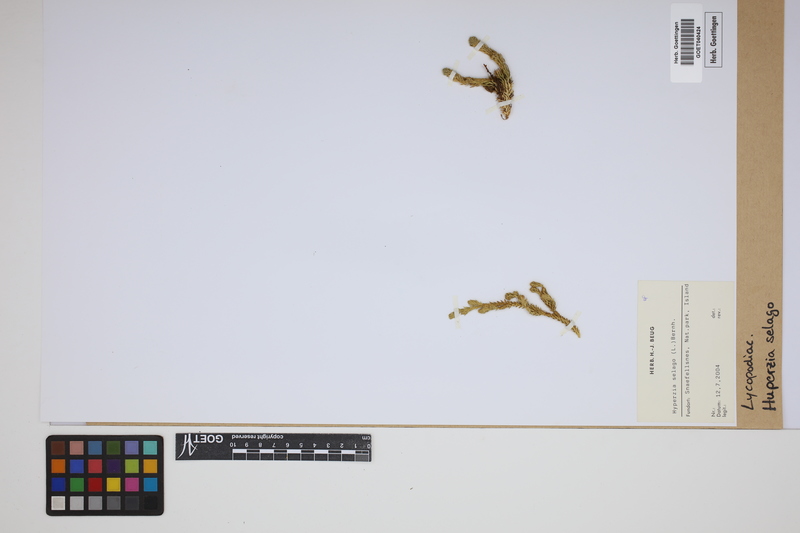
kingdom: Plantae
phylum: Tracheophyta
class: Lycopodiopsida
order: Lycopodiales
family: Lycopodiaceae
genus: Huperzia
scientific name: Huperzia selago
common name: Northern firmoss
